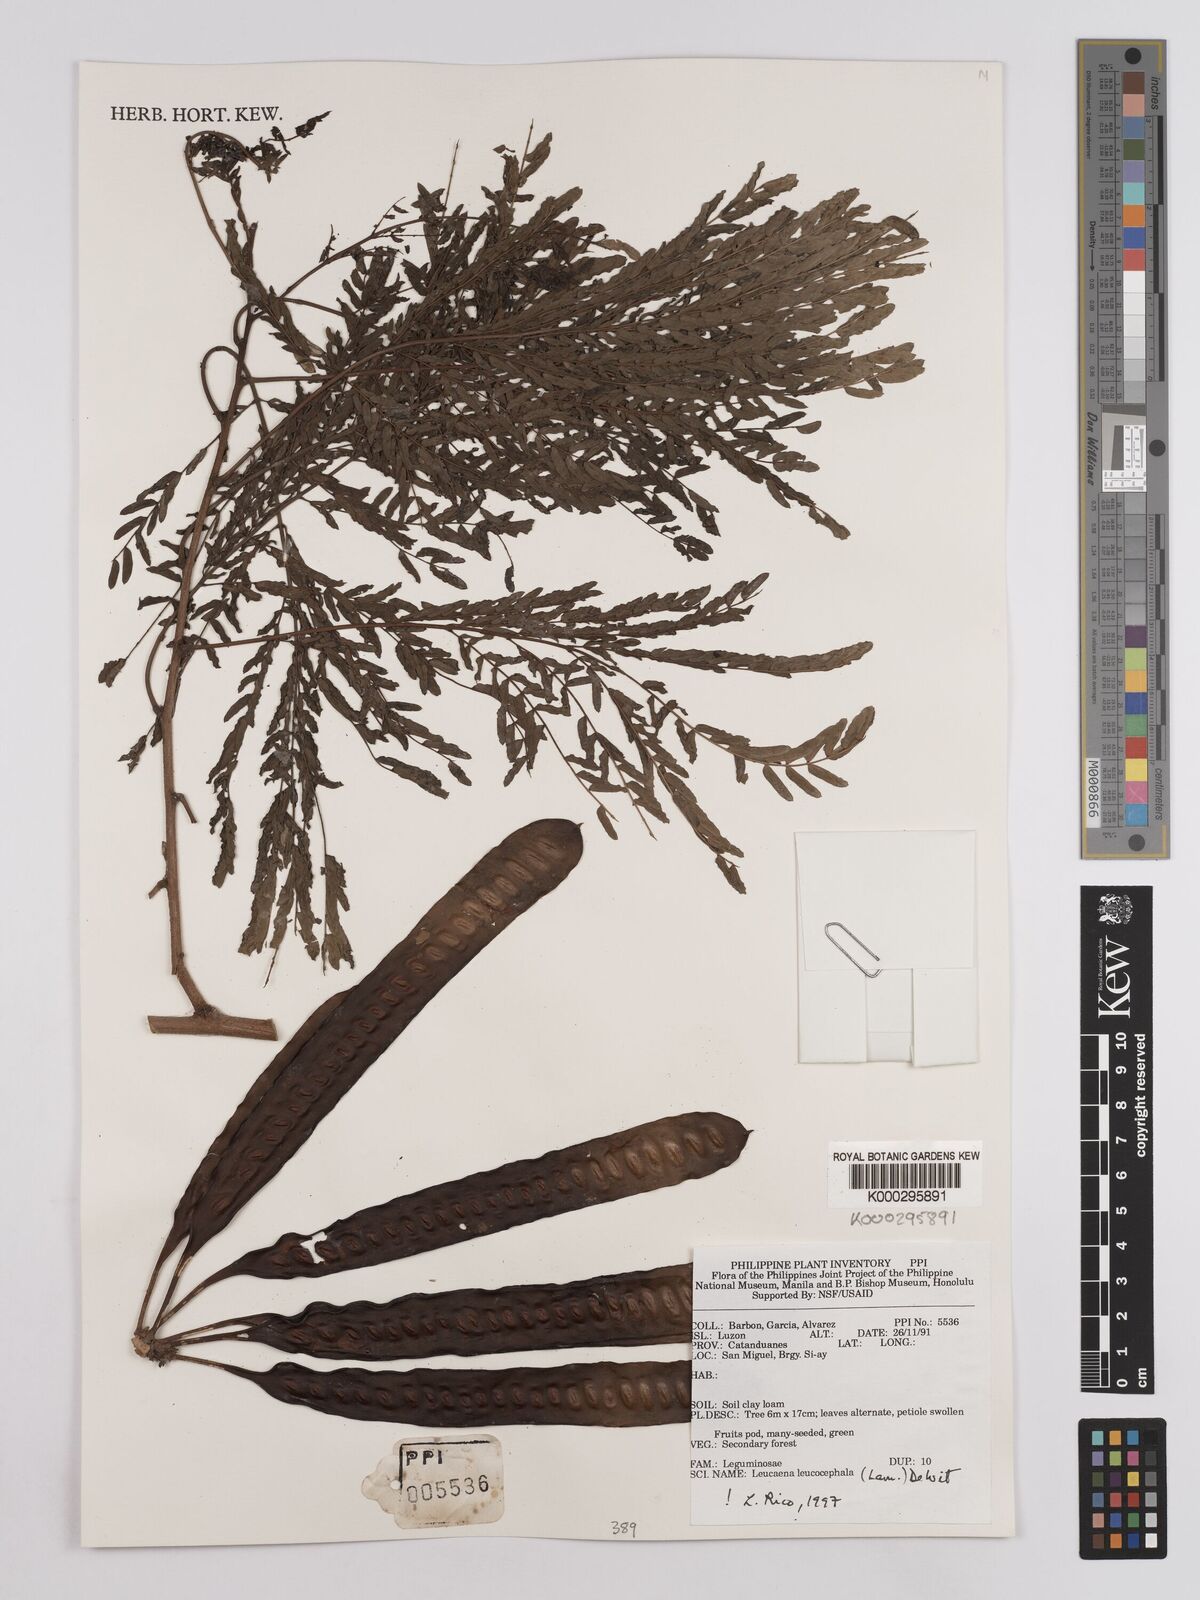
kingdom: Plantae
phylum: Tracheophyta
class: Magnoliopsida
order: Fabales
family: Fabaceae
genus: Leucaena
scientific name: Leucaena leucocephala
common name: White leadtree
